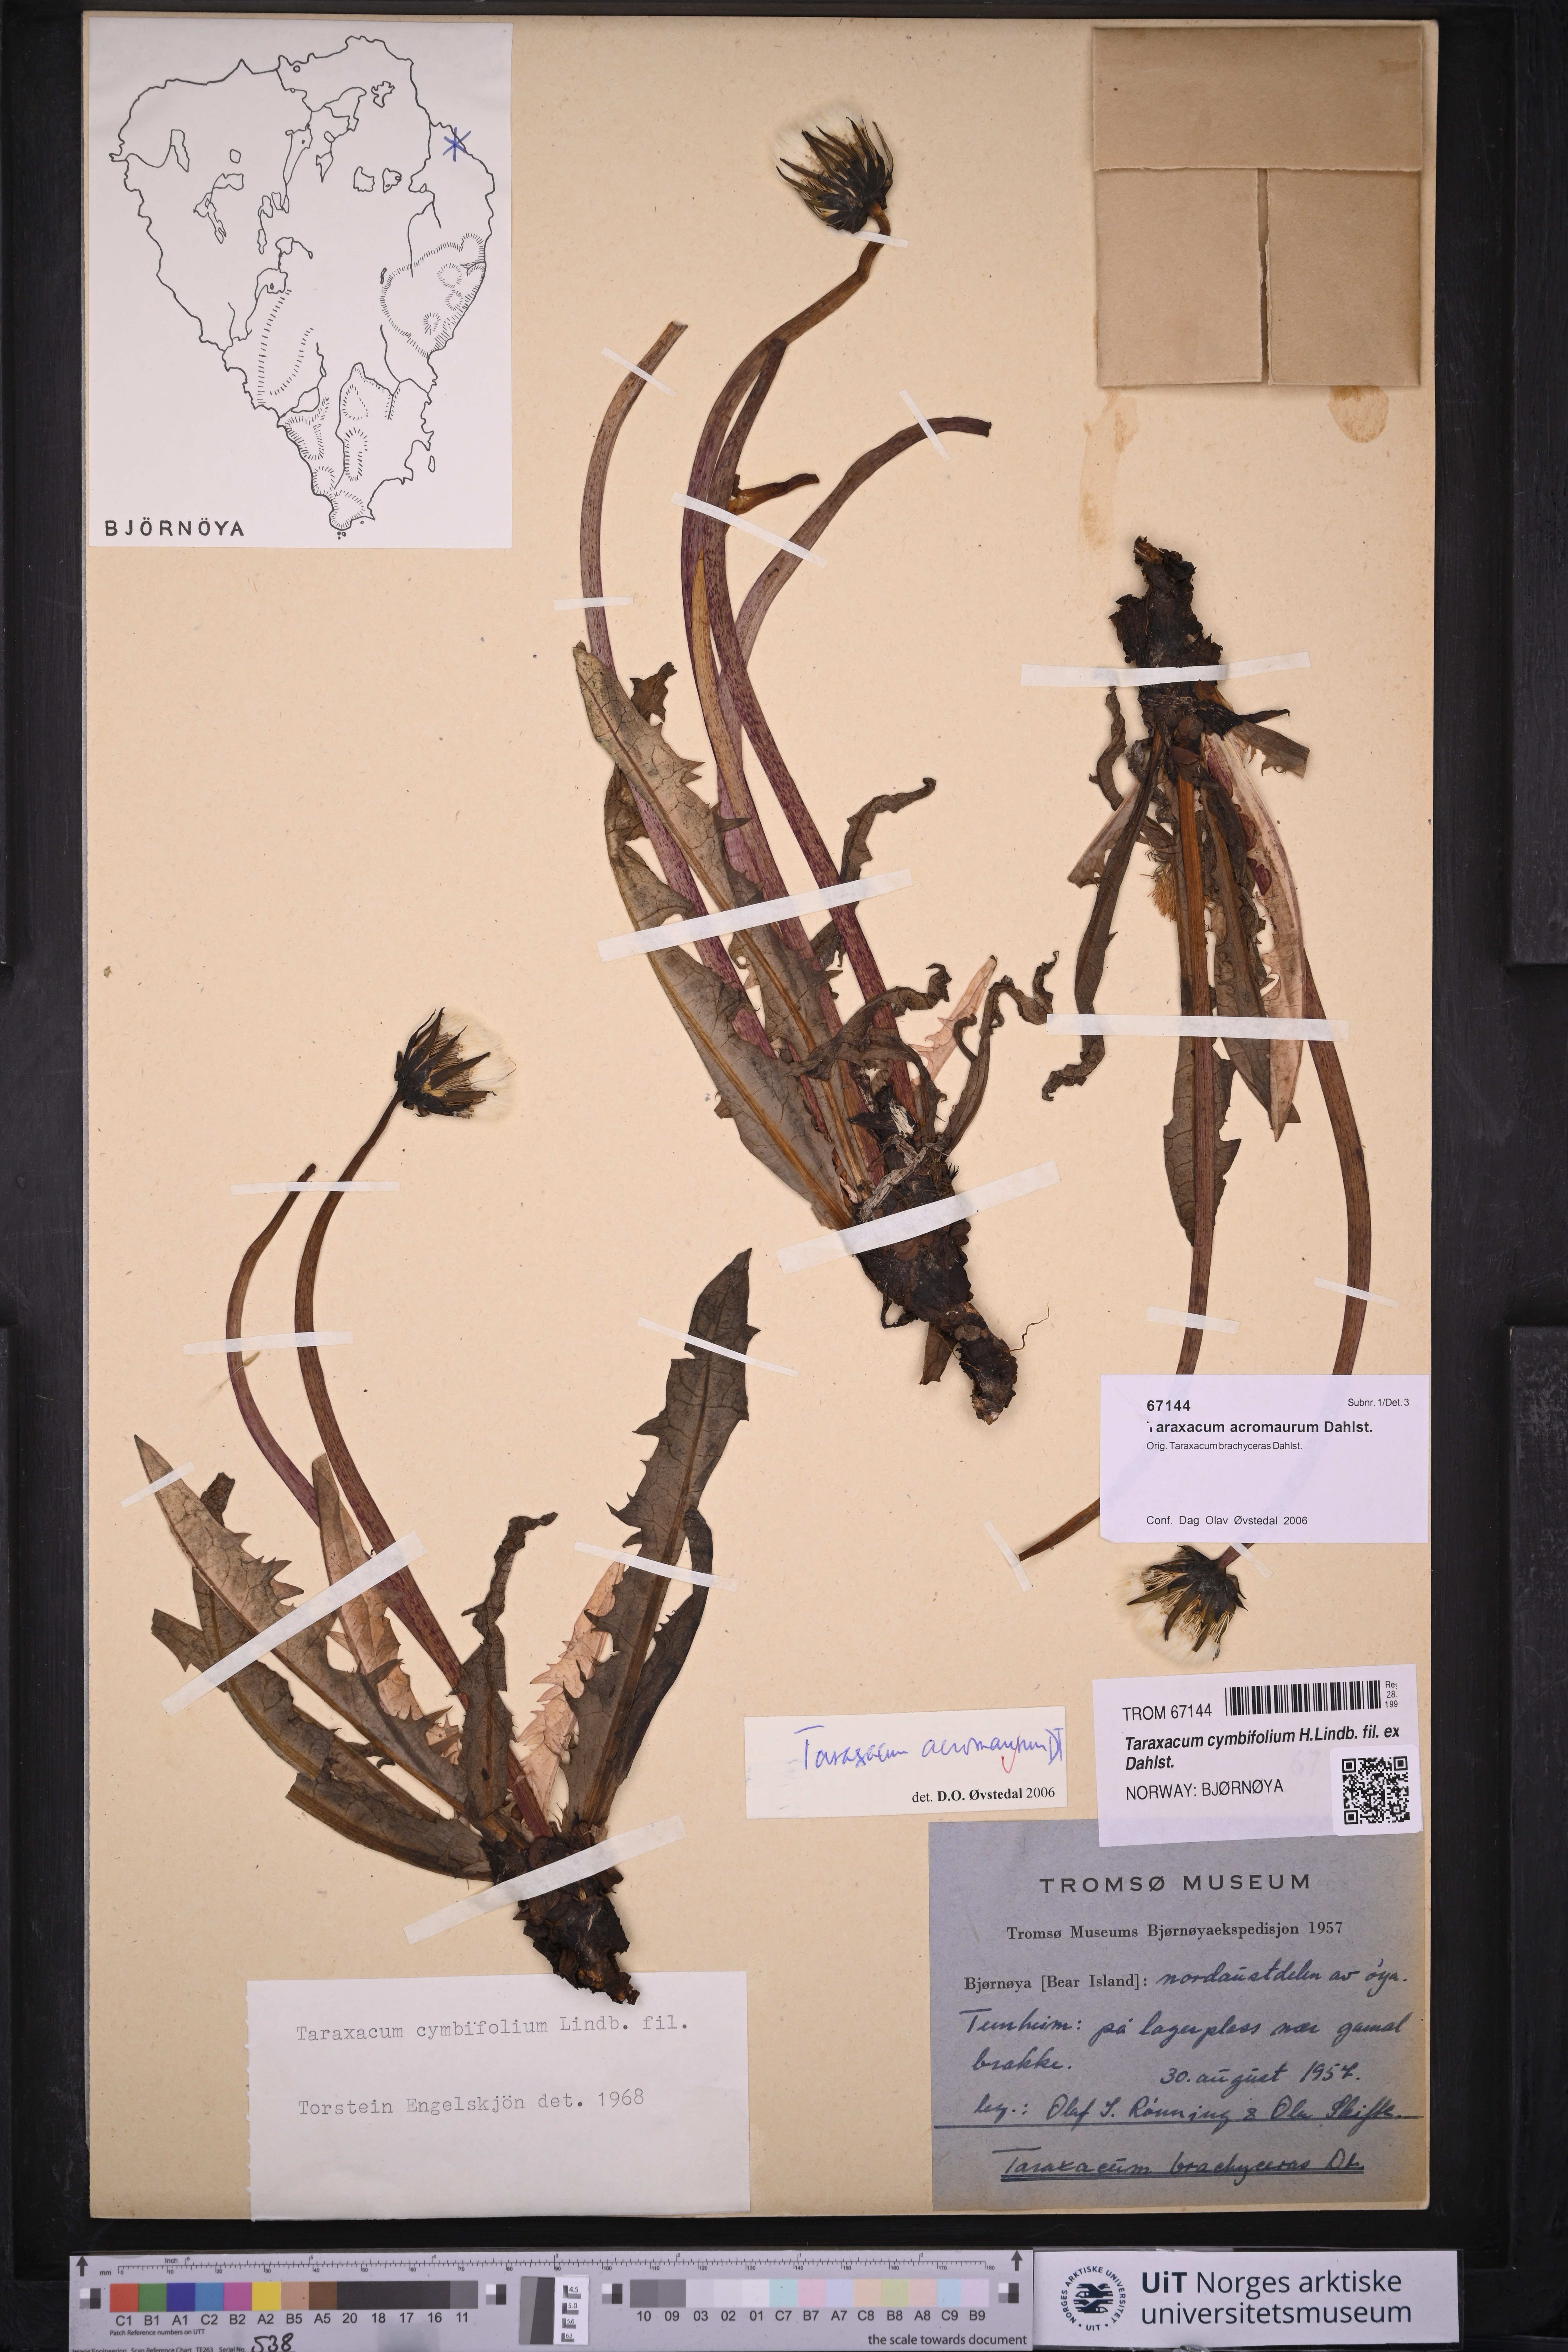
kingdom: Plantae
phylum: Tracheophyta
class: Magnoliopsida
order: Asterales
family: Asteraceae
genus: Taraxacum
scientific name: Taraxacum cymbifolium
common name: Ben lawes dandelion
